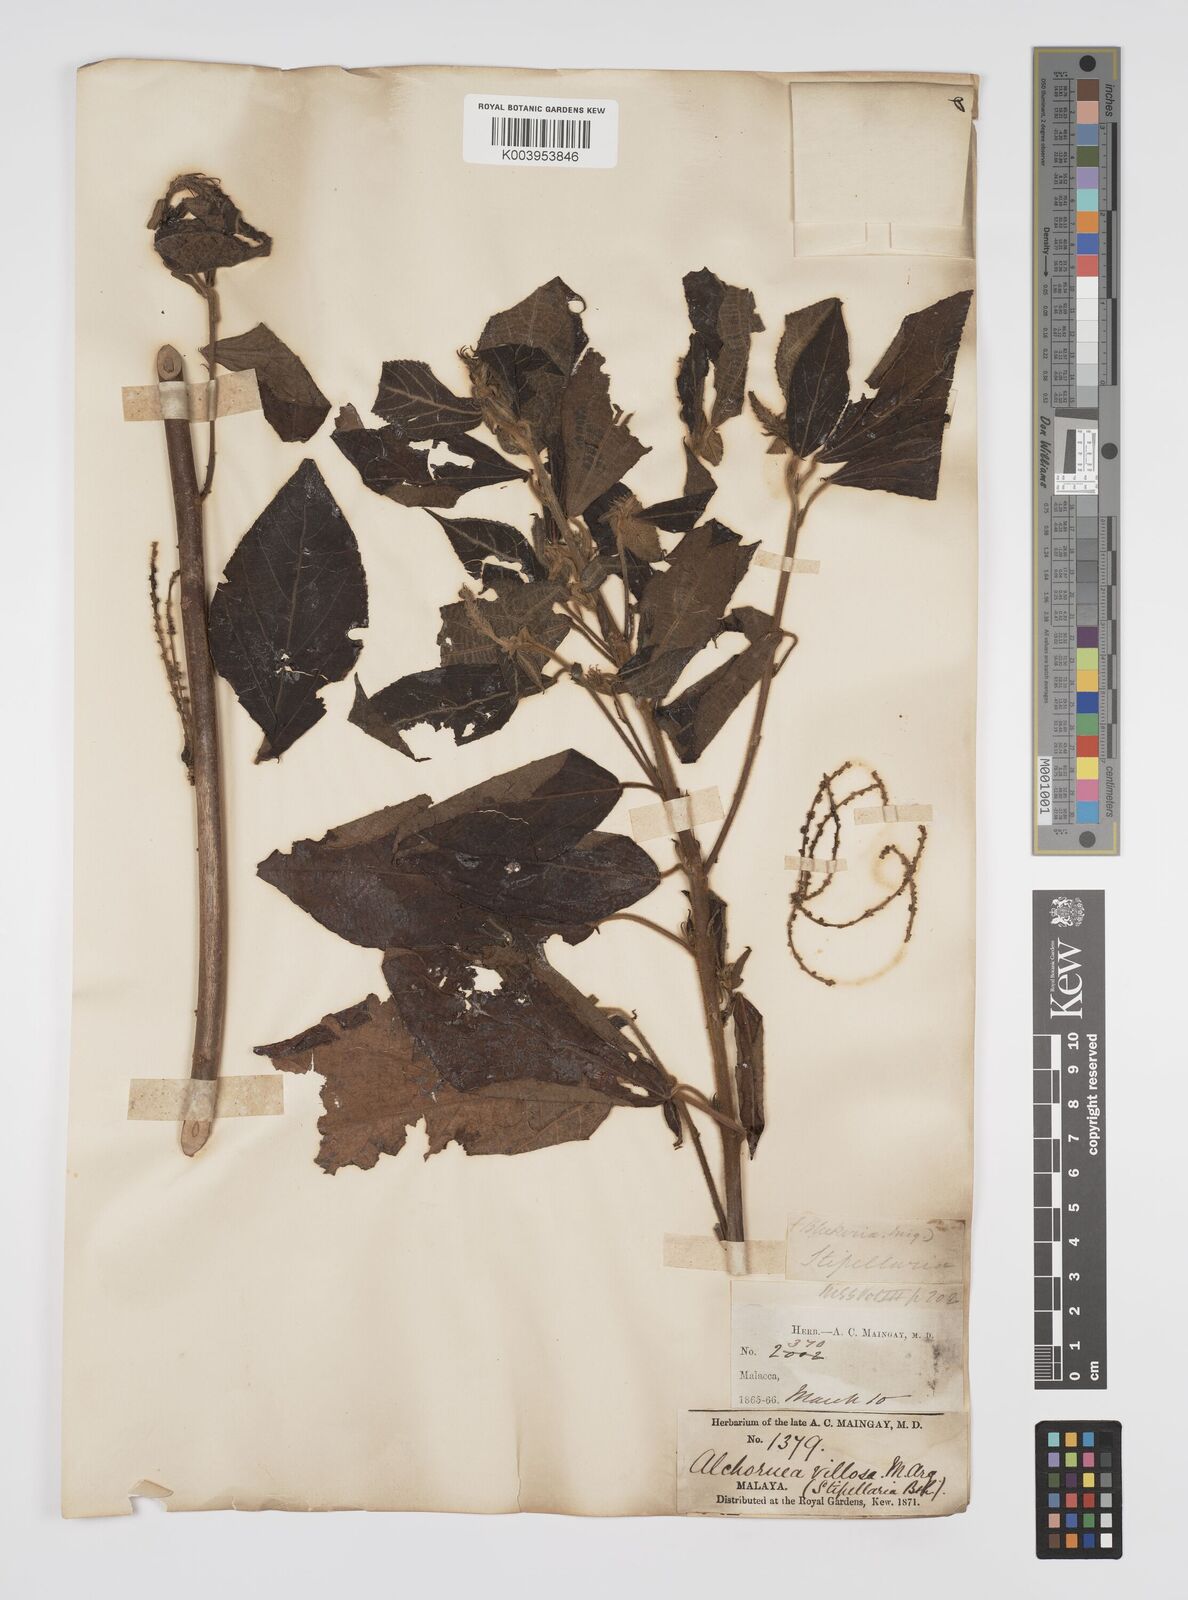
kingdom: Plantae
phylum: Tracheophyta
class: Magnoliopsida
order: Malpighiales
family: Euphorbiaceae
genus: Alchornea
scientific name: Alchornea tiliifolia
